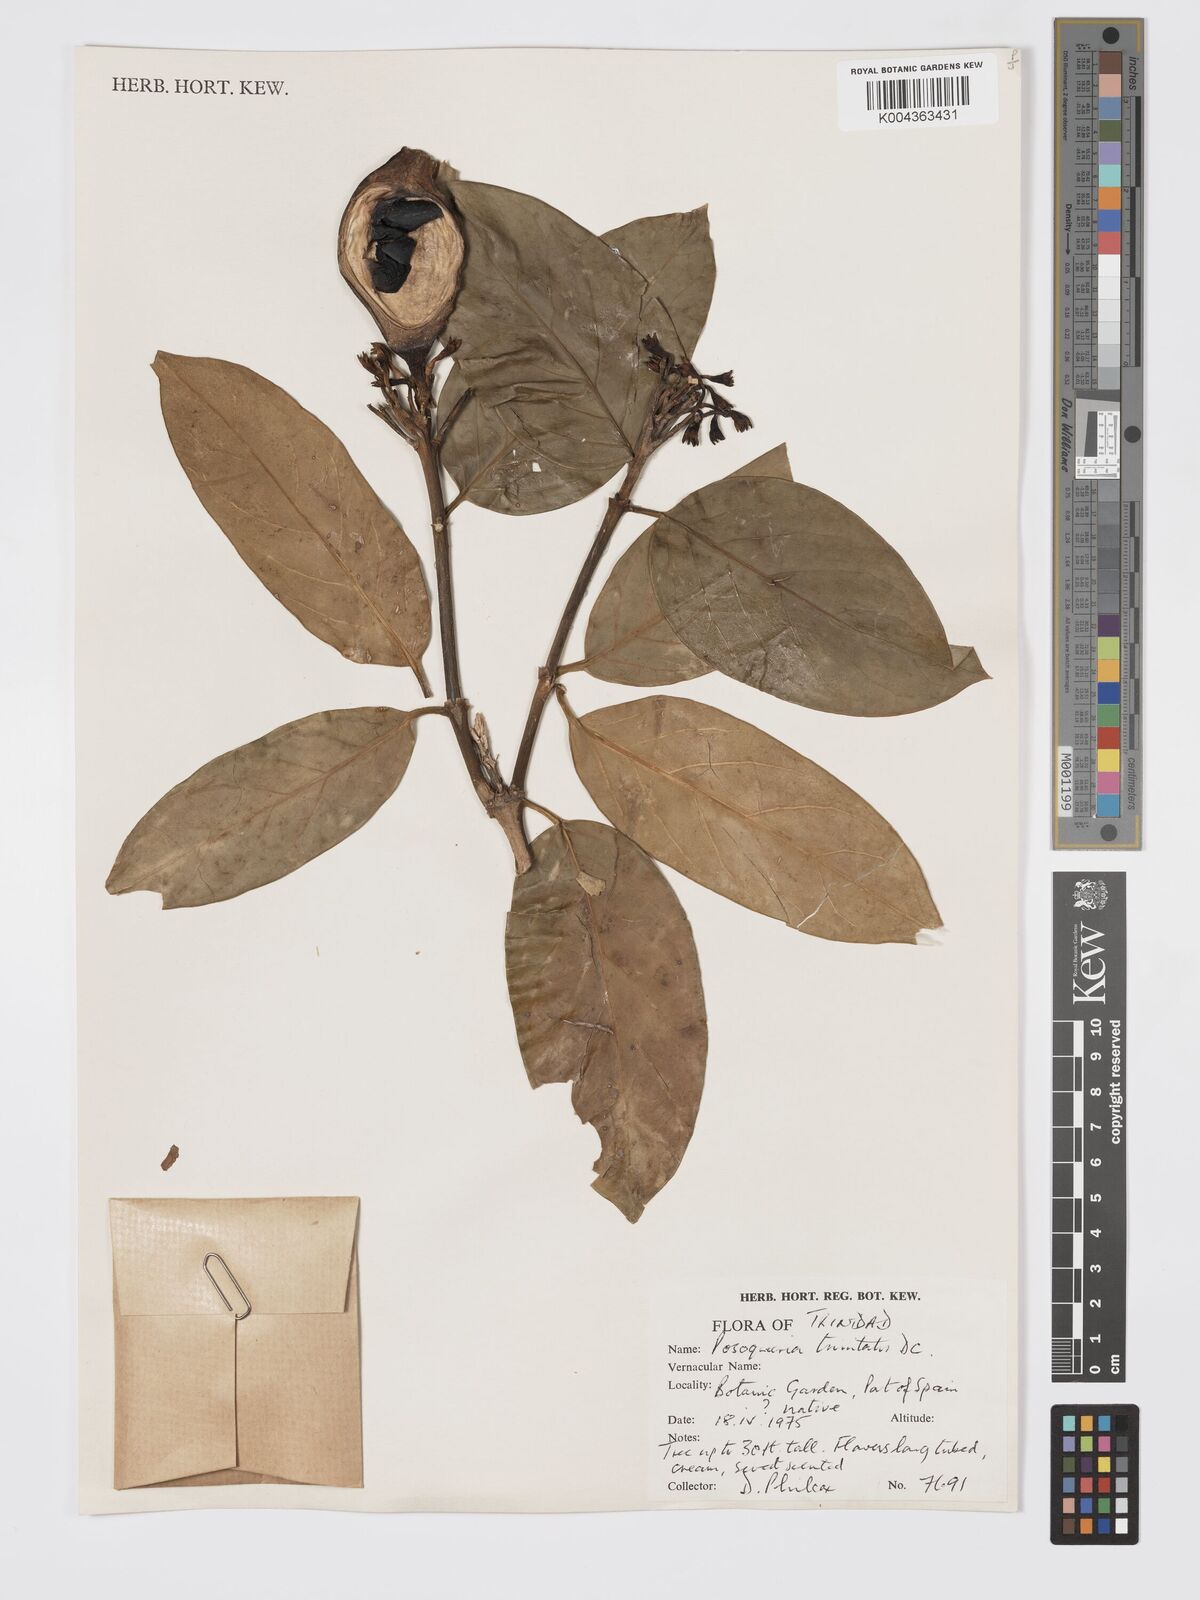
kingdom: Plantae
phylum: Tracheophyta
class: Magnoliopsida
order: Gentianales
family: Rubiaceae
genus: Posoqueria
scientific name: Posoqueria trinitatis
